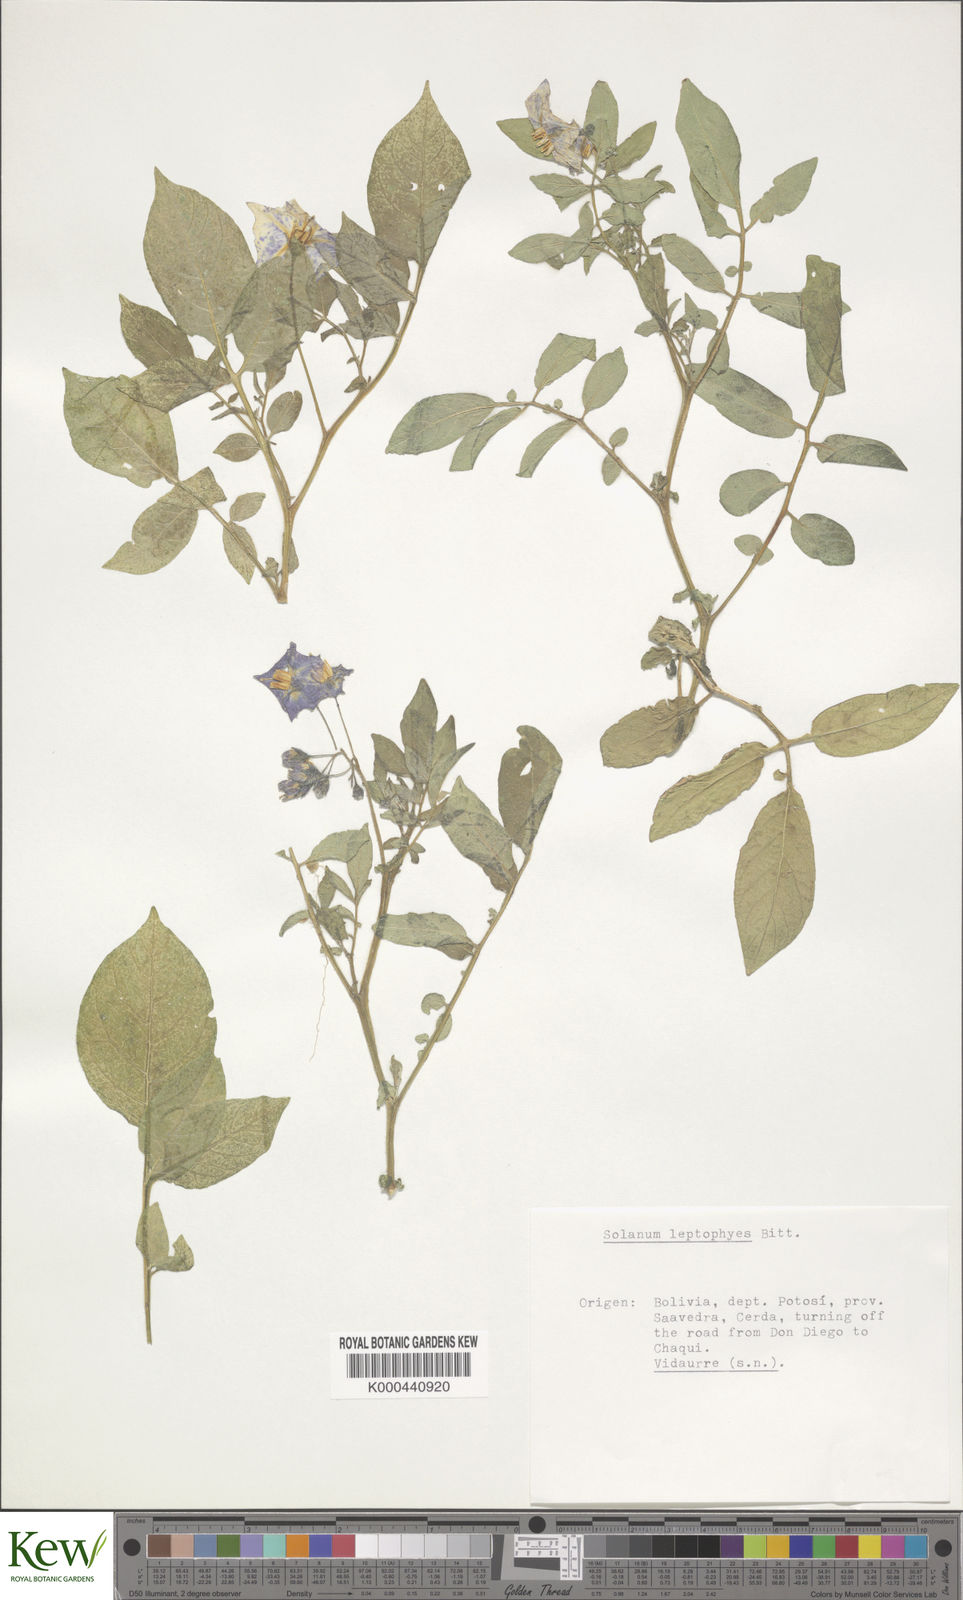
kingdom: Plantae
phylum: Tracheophyta
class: Magnoliopsida
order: Solanales
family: Solanaceae
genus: Solanum
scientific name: Solanum brevicaule
